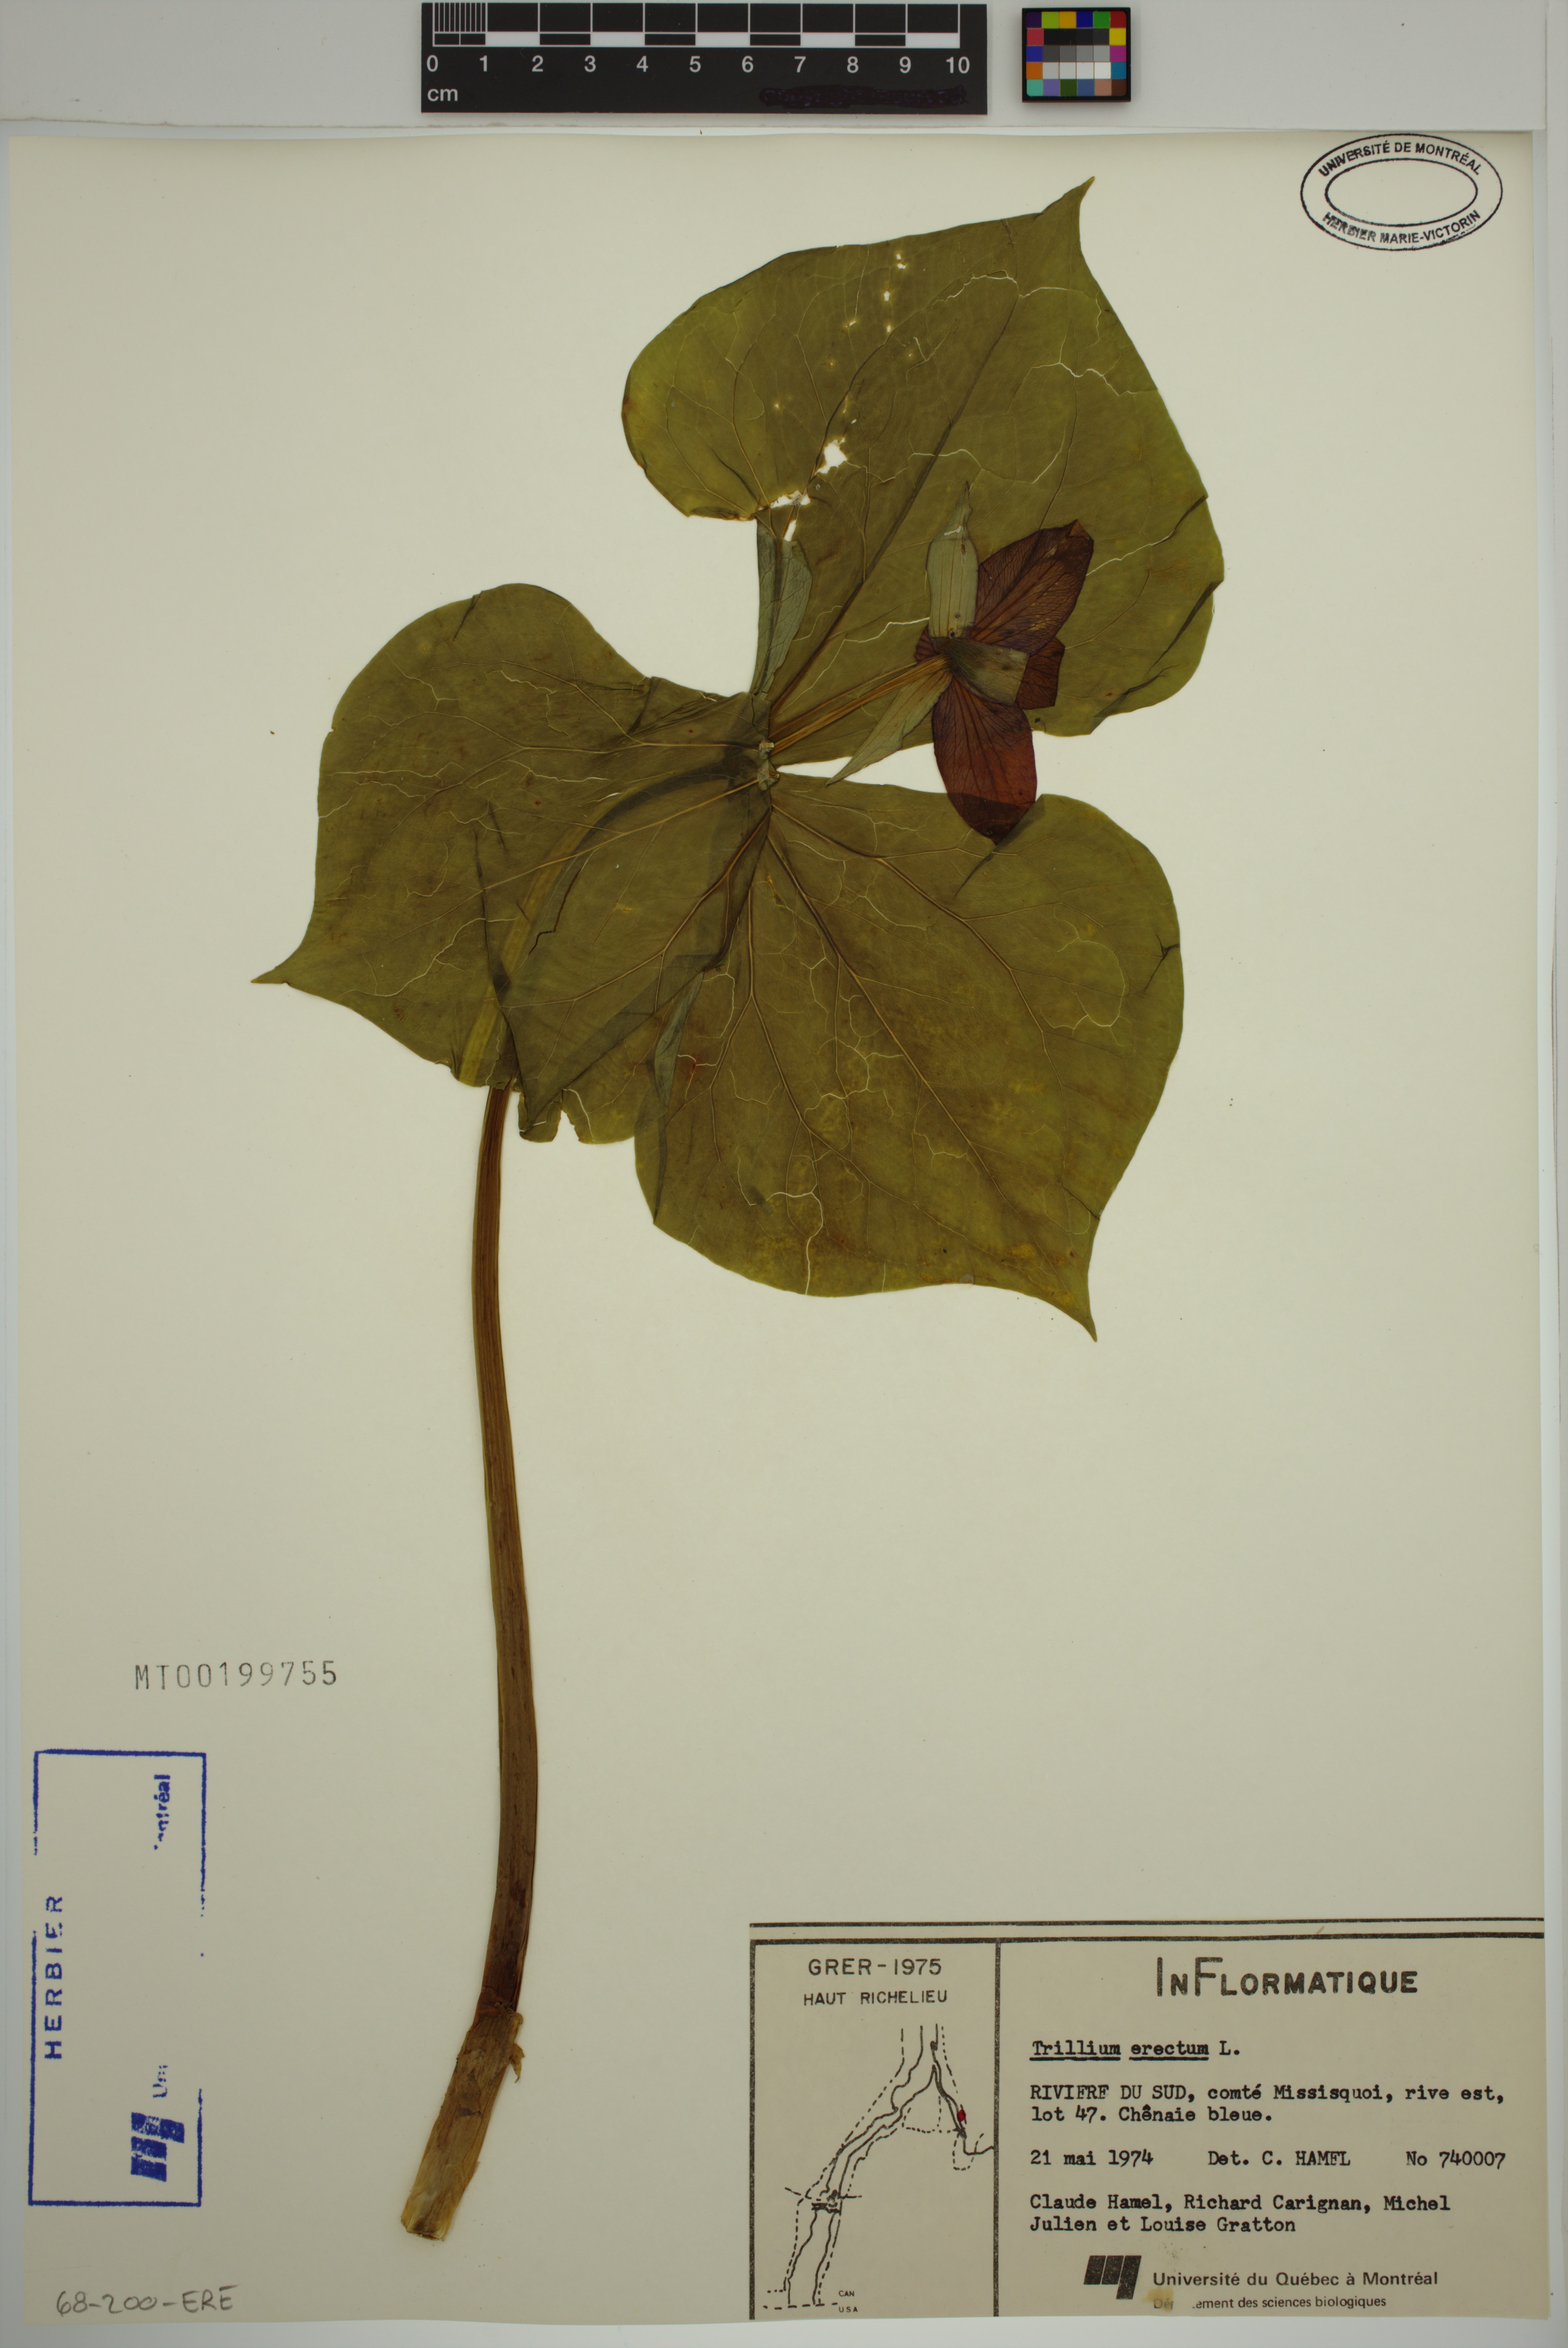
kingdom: Plantae
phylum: Tracheophyta
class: Liliopsida
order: Liliales
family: Melanthiaceae
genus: Trillium
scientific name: Trillium erectum
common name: Purple trillium
